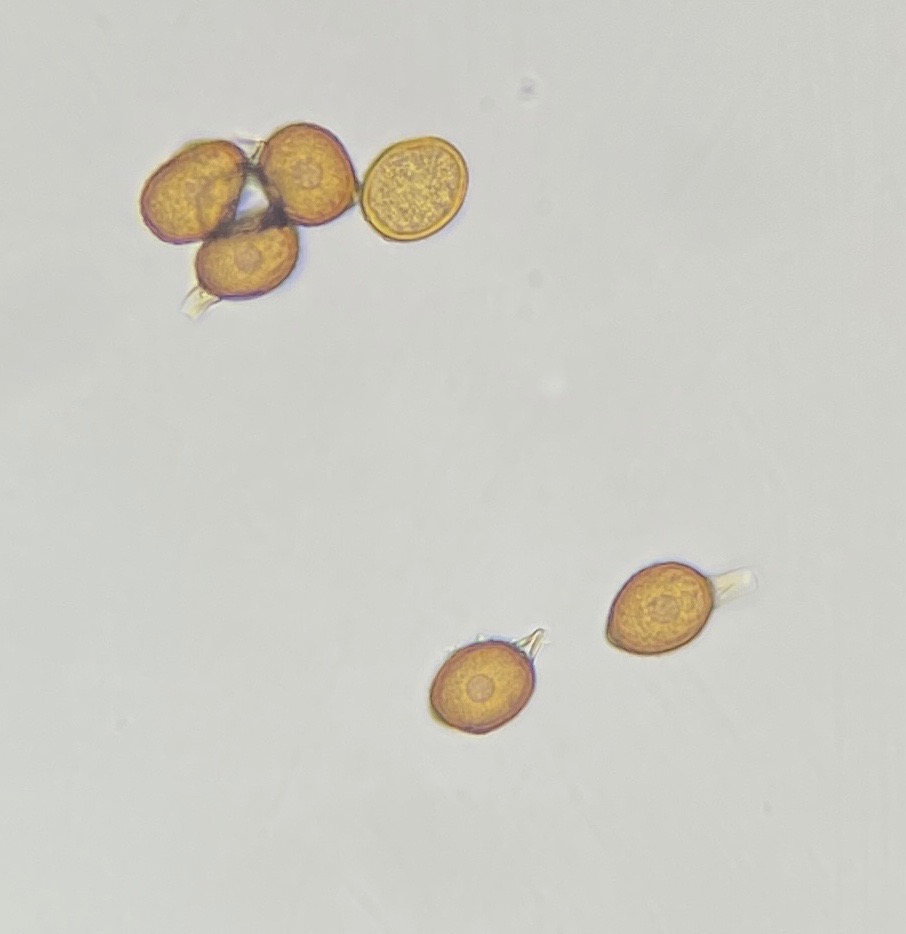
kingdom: Fungi
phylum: Basidiomycota
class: Pucciniomycetes
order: Pucciniales
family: Pucciniaceae
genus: Uromyces
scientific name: Uromyces pisi-sativi
